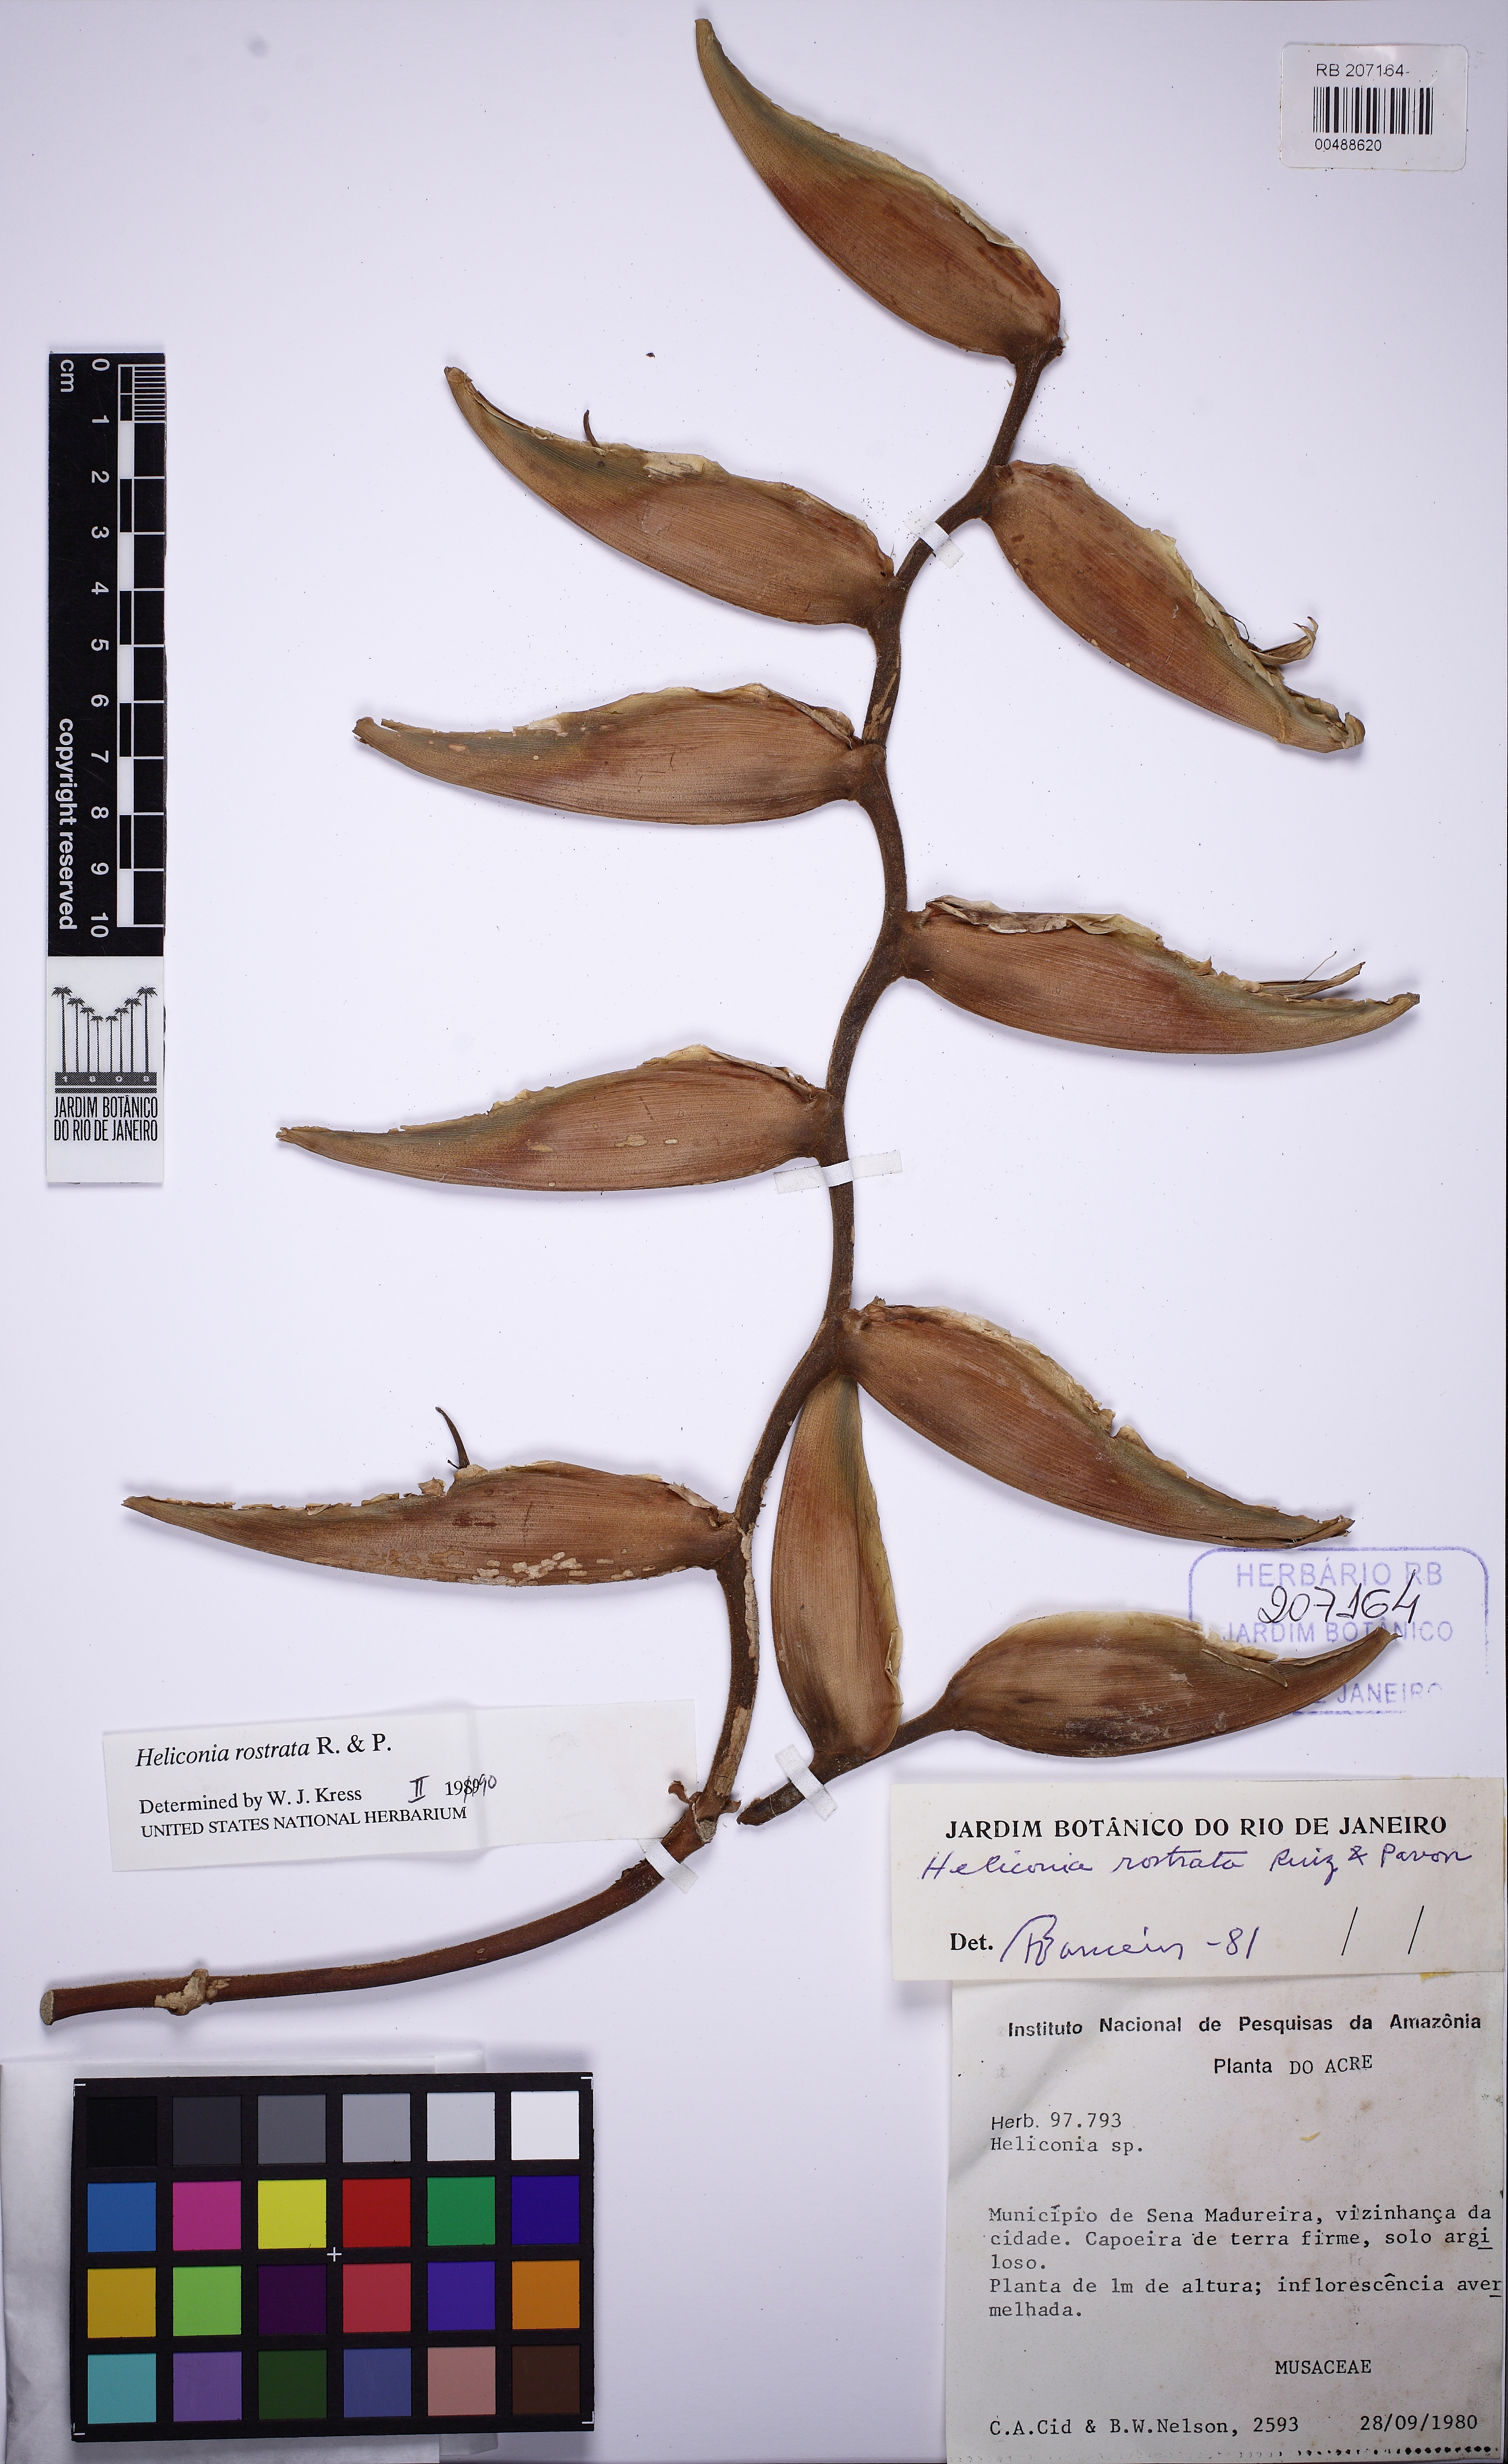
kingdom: Plantae
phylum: Tracheophyta
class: Liliopsida
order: Zingiberales
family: Heliconiaceae
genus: Heliconia
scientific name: Heliconia rostrata
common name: False bird of paradise
